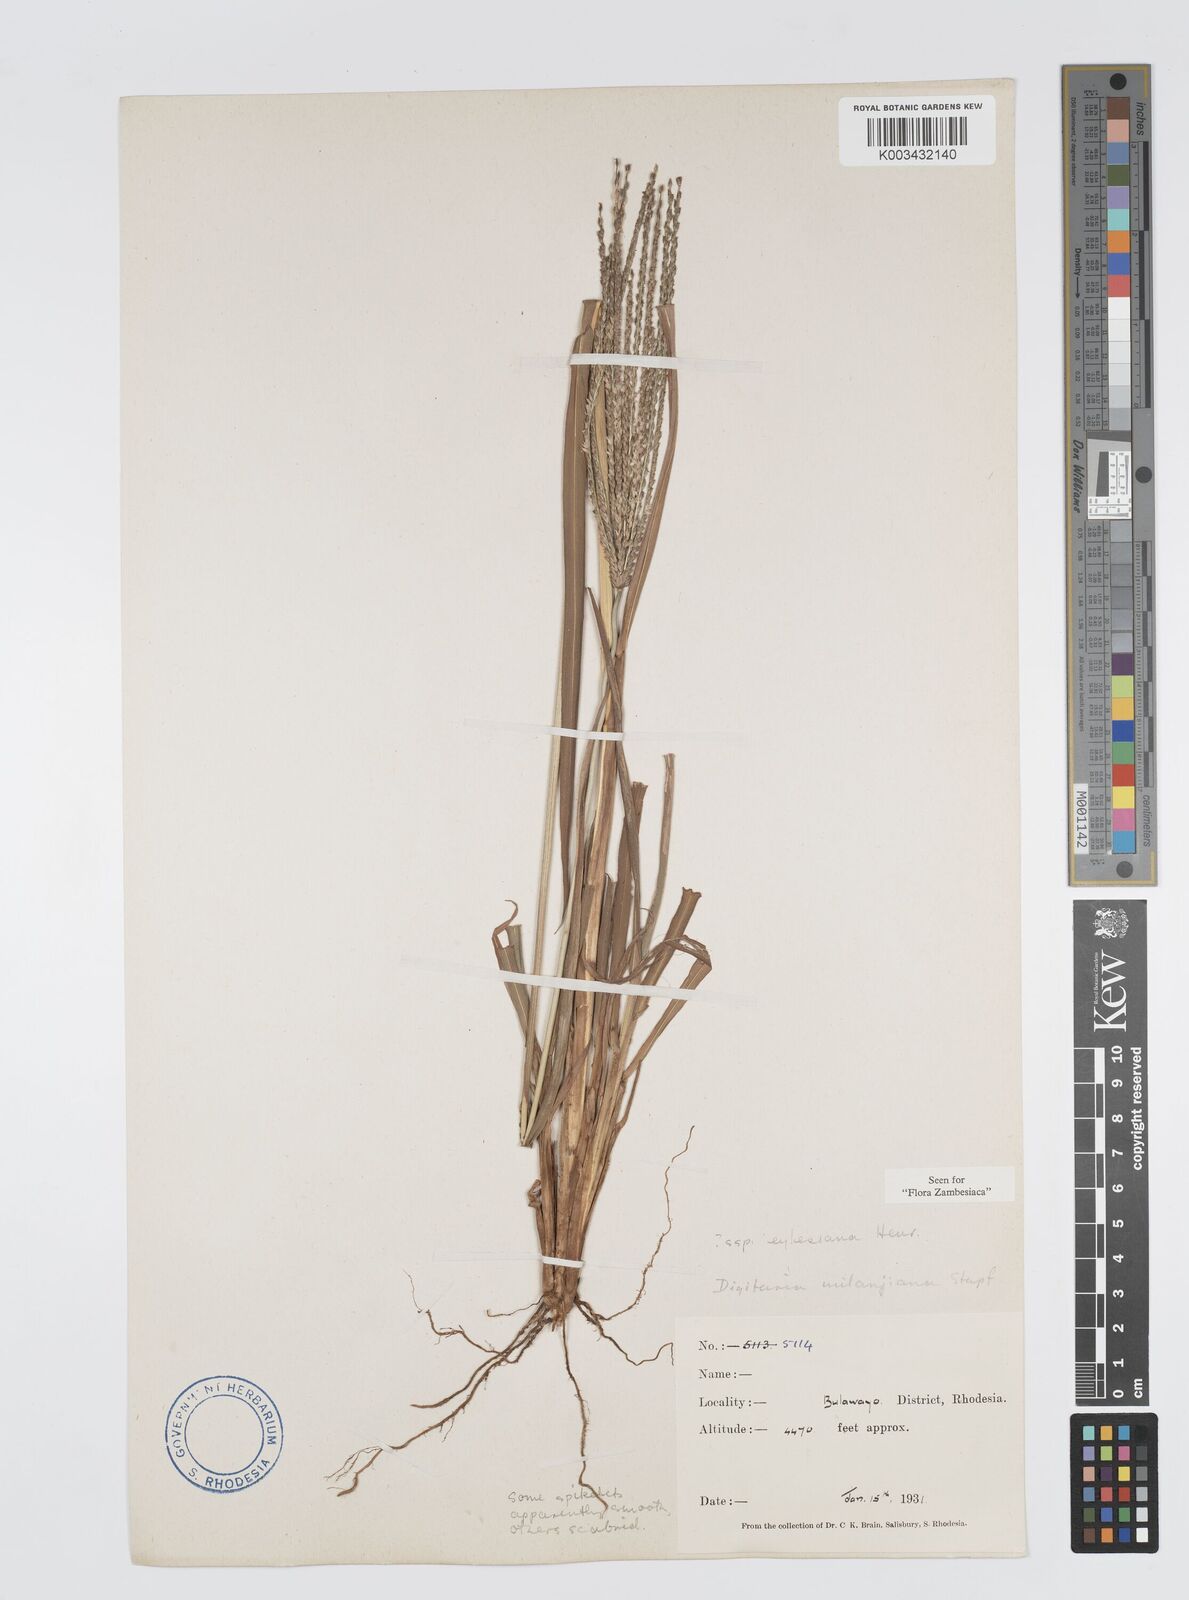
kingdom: Plantae
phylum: Tracheophyta
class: Liliopsida
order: Poales
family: Poaceae
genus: Digitaria
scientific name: Digitaria milanjiana
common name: Madagascar crabgrass
